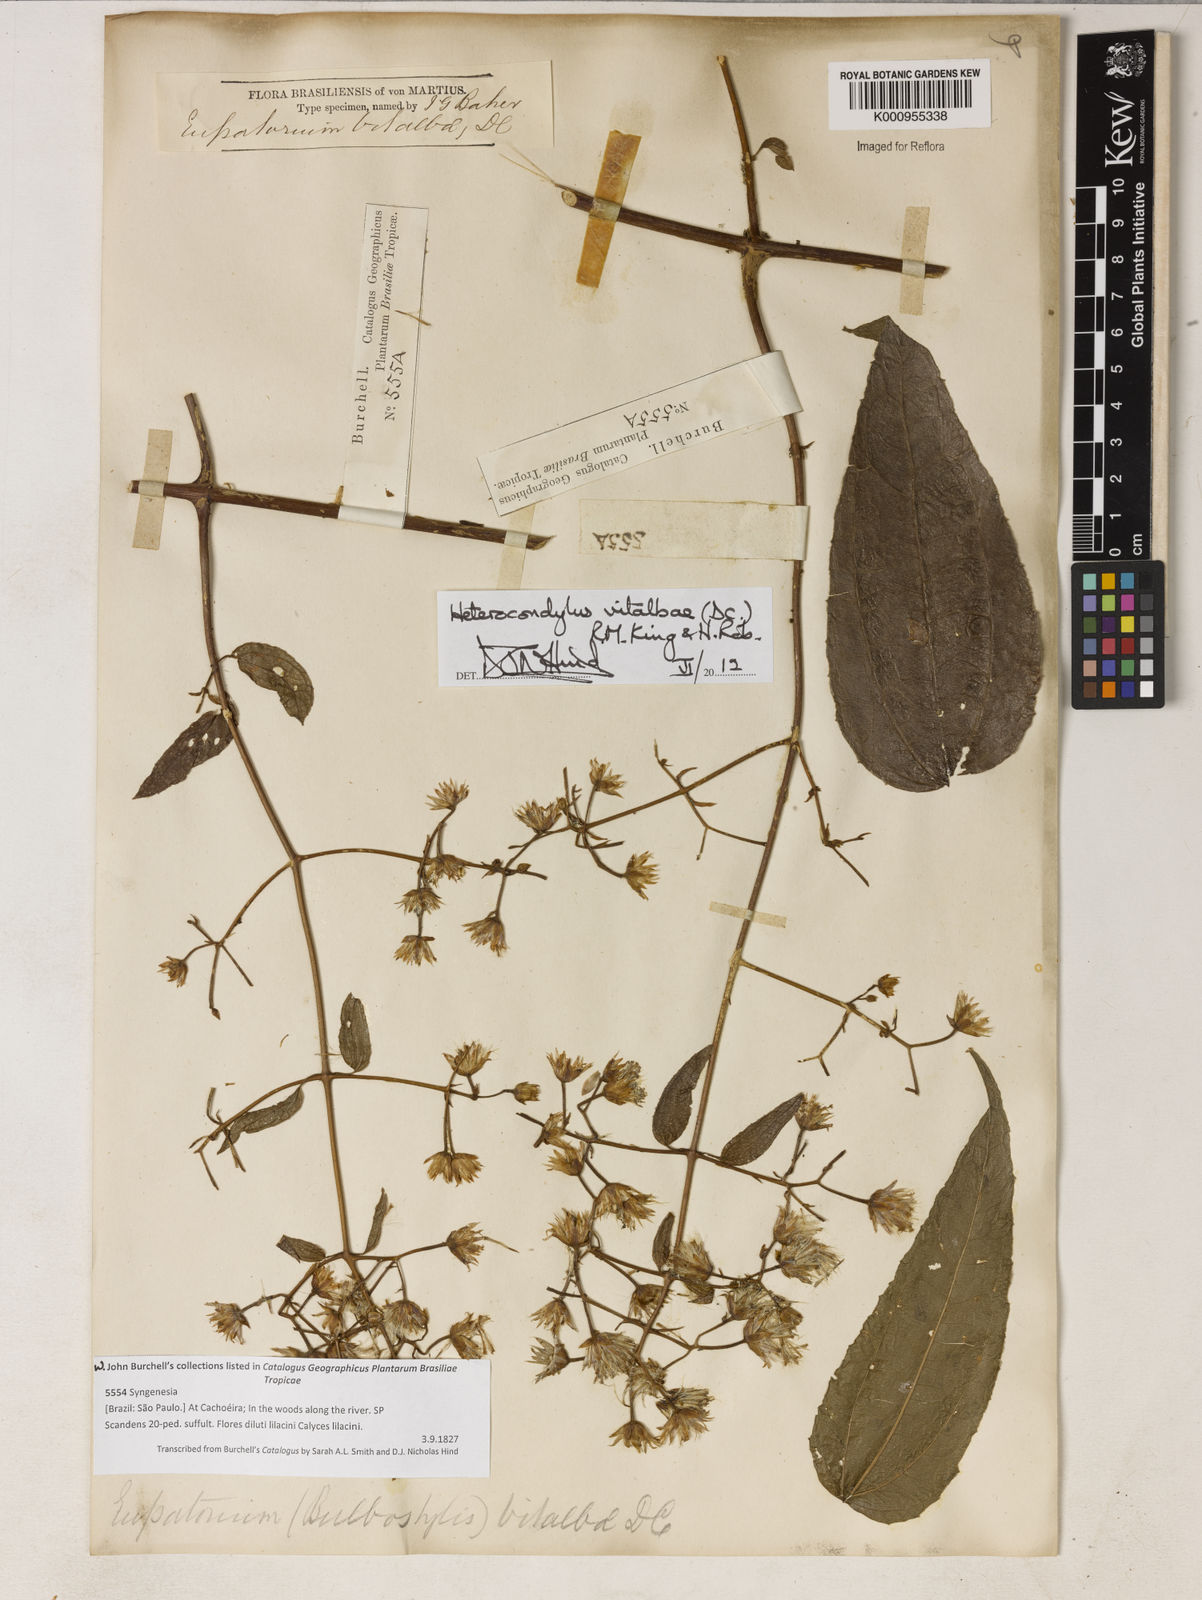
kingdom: Plantae
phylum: Tracheophyta
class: Magnoliopsida
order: Asterales
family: Asteraceae
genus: Heterocondylus
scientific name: Heterocondylus vitalbae
